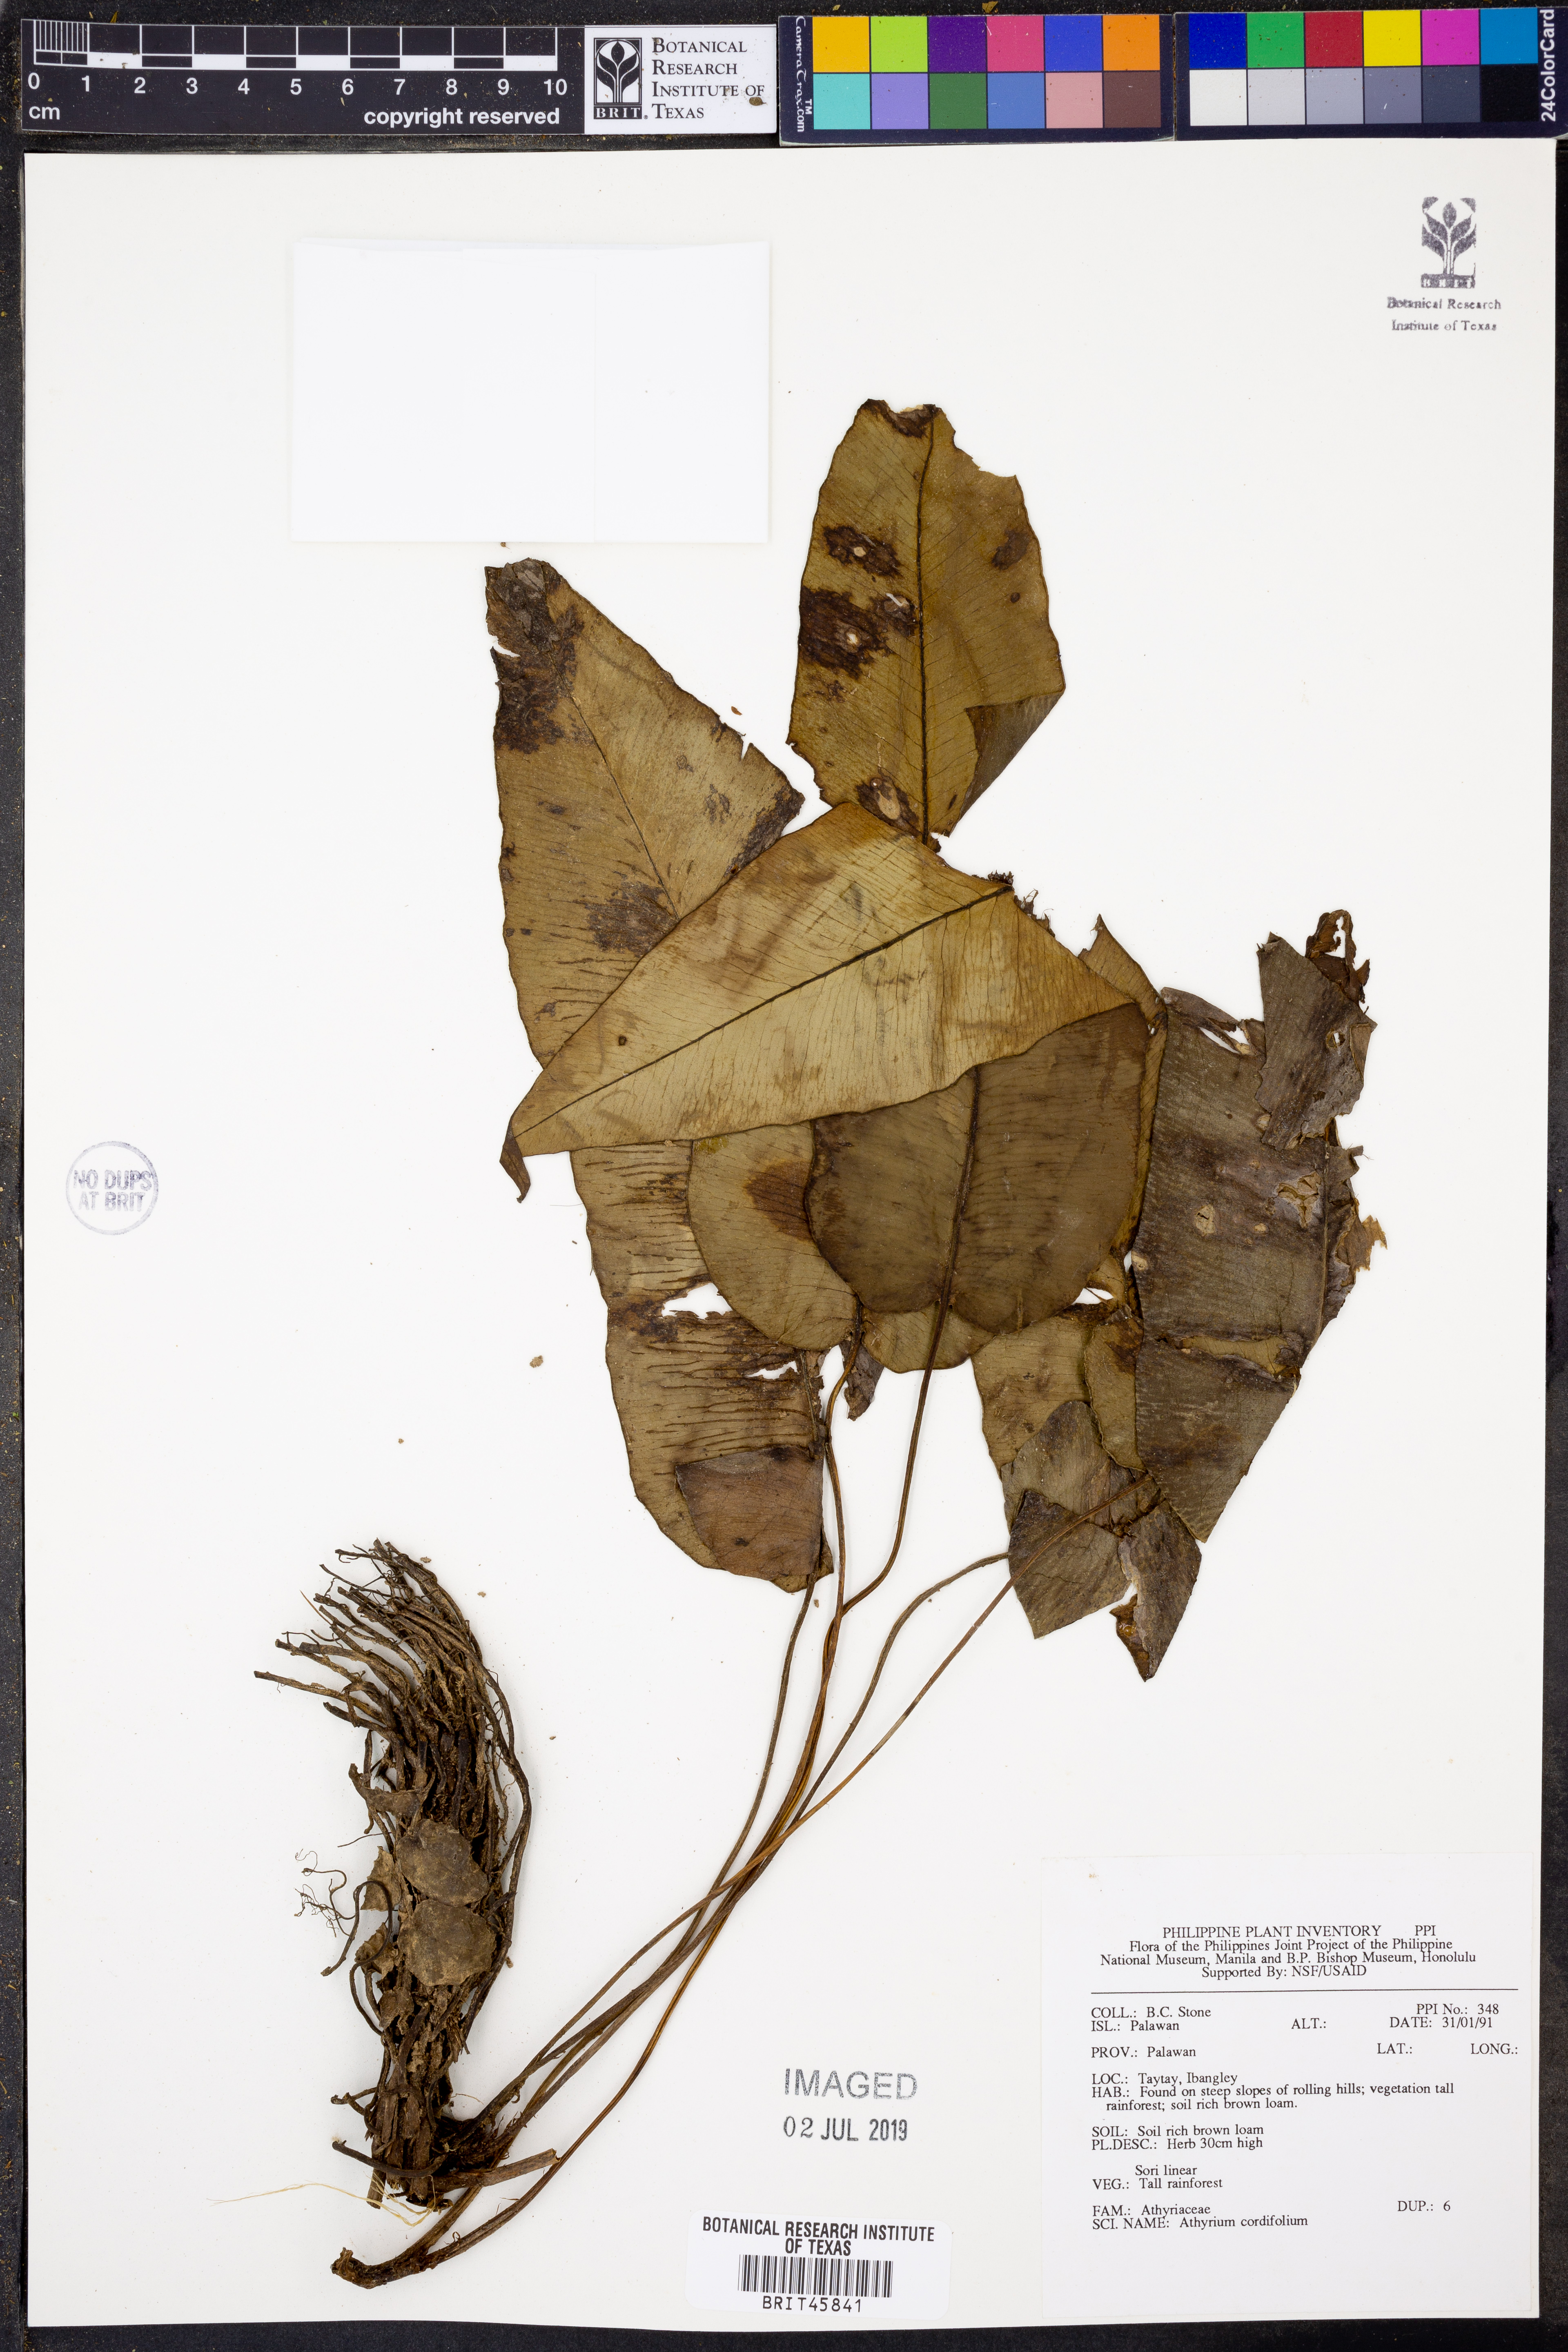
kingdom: Plantae
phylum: Tracheophyta
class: Polypodiopsida
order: Polypodiales
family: Athyriaceae
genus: Diplazium
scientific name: Diplazium cordifolium
